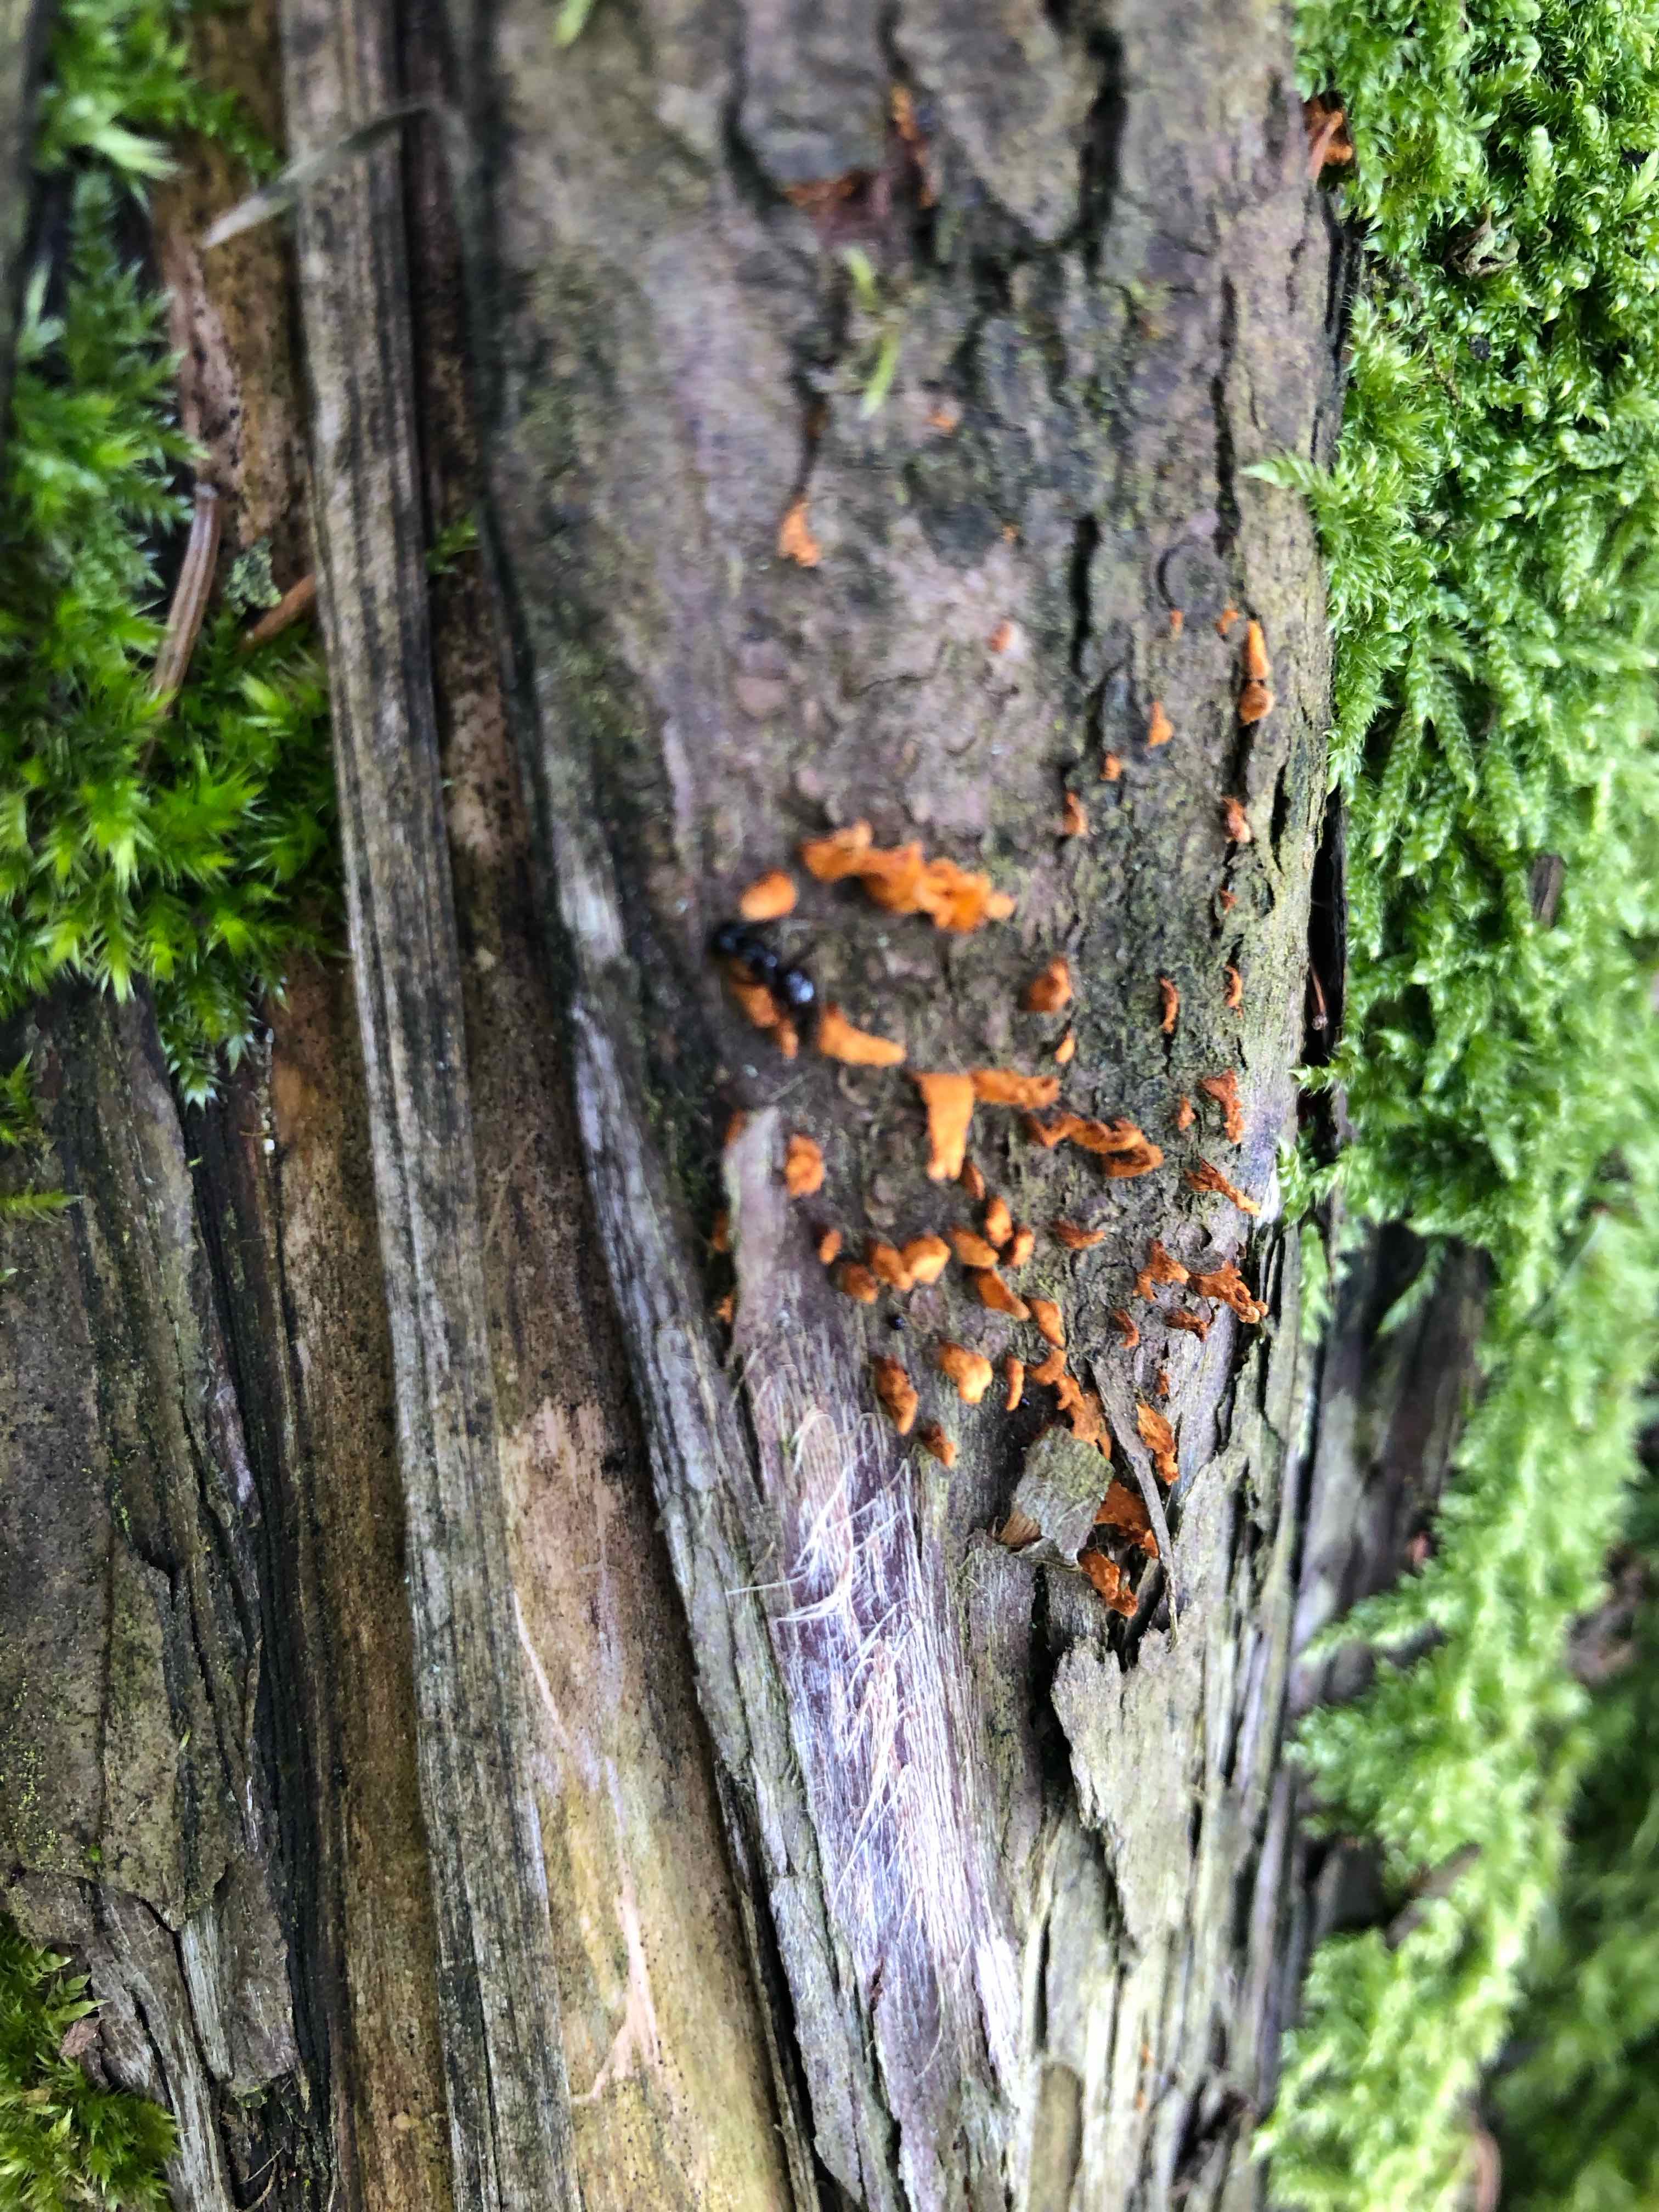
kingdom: Fungi
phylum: Basidiomycota
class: Pucciniomycetes
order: Pucciniales
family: Gymnosporangiaceae
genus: Gymnosporangium
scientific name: Gymnosporangium clavariiforme
